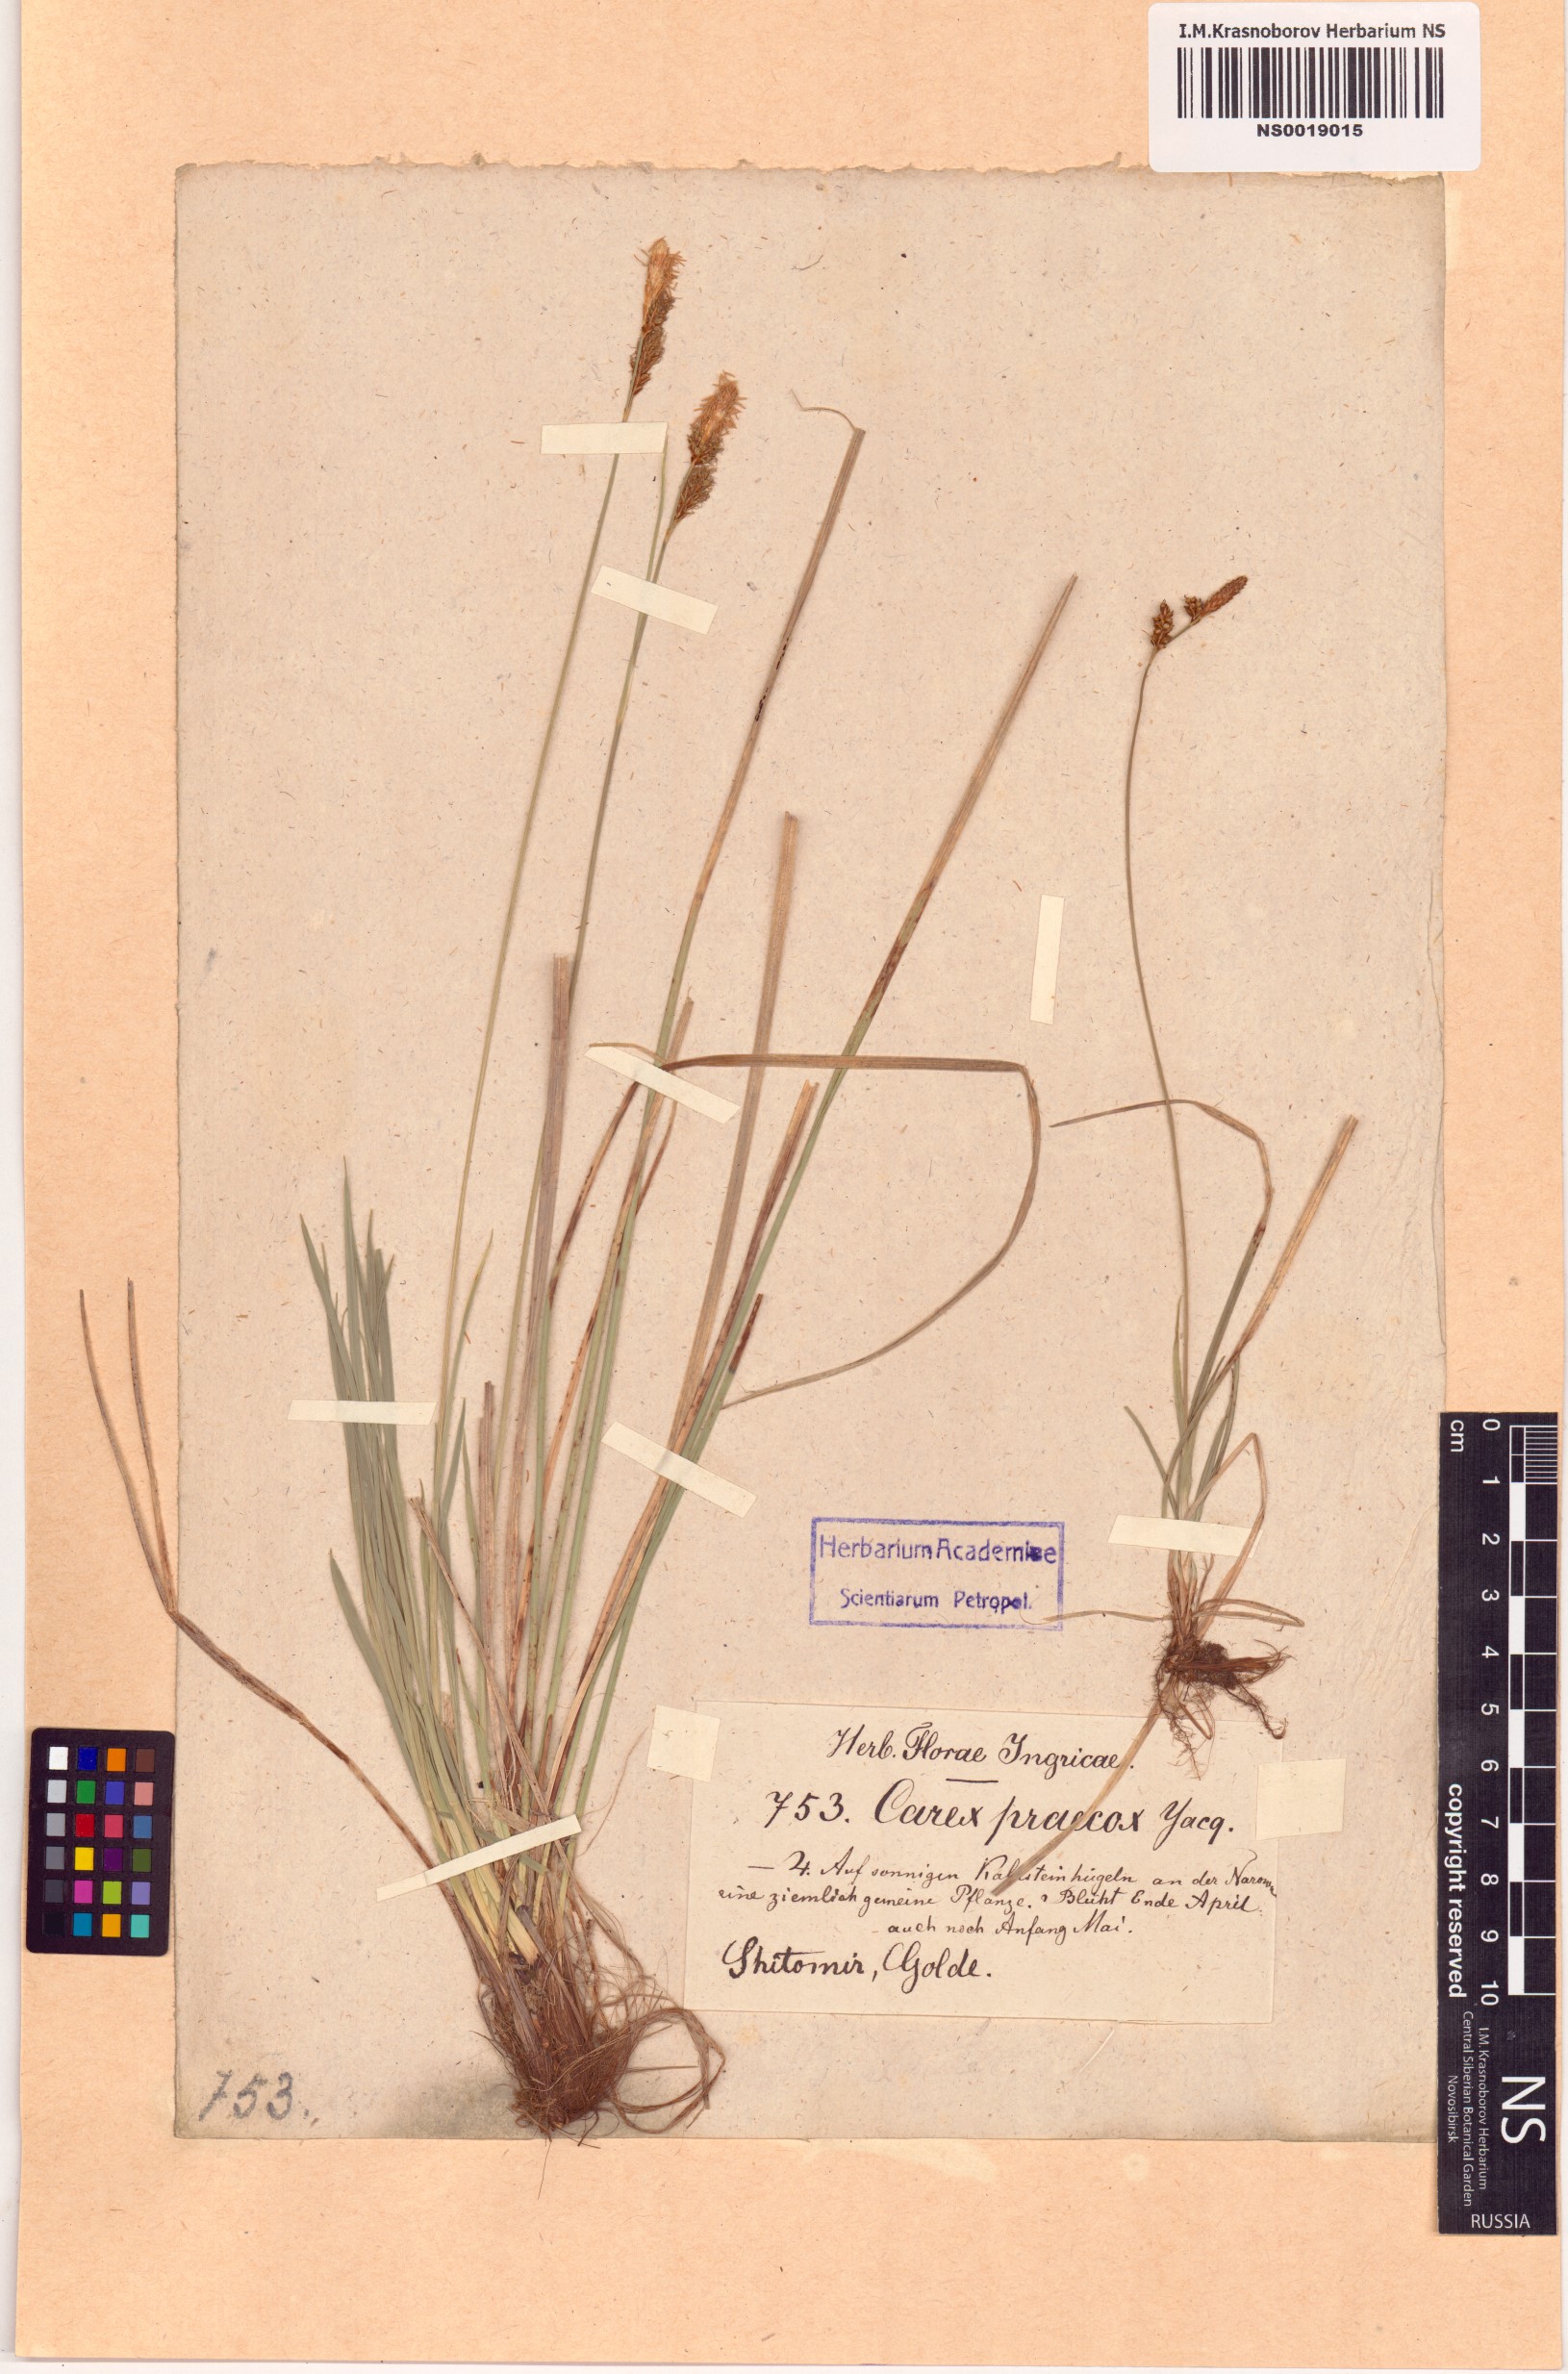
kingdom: Plantae
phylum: Tracheophyta
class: Liliopsida
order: Poales
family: Cyperaceae
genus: Carex
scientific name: Carex praecox
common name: Early sedge
